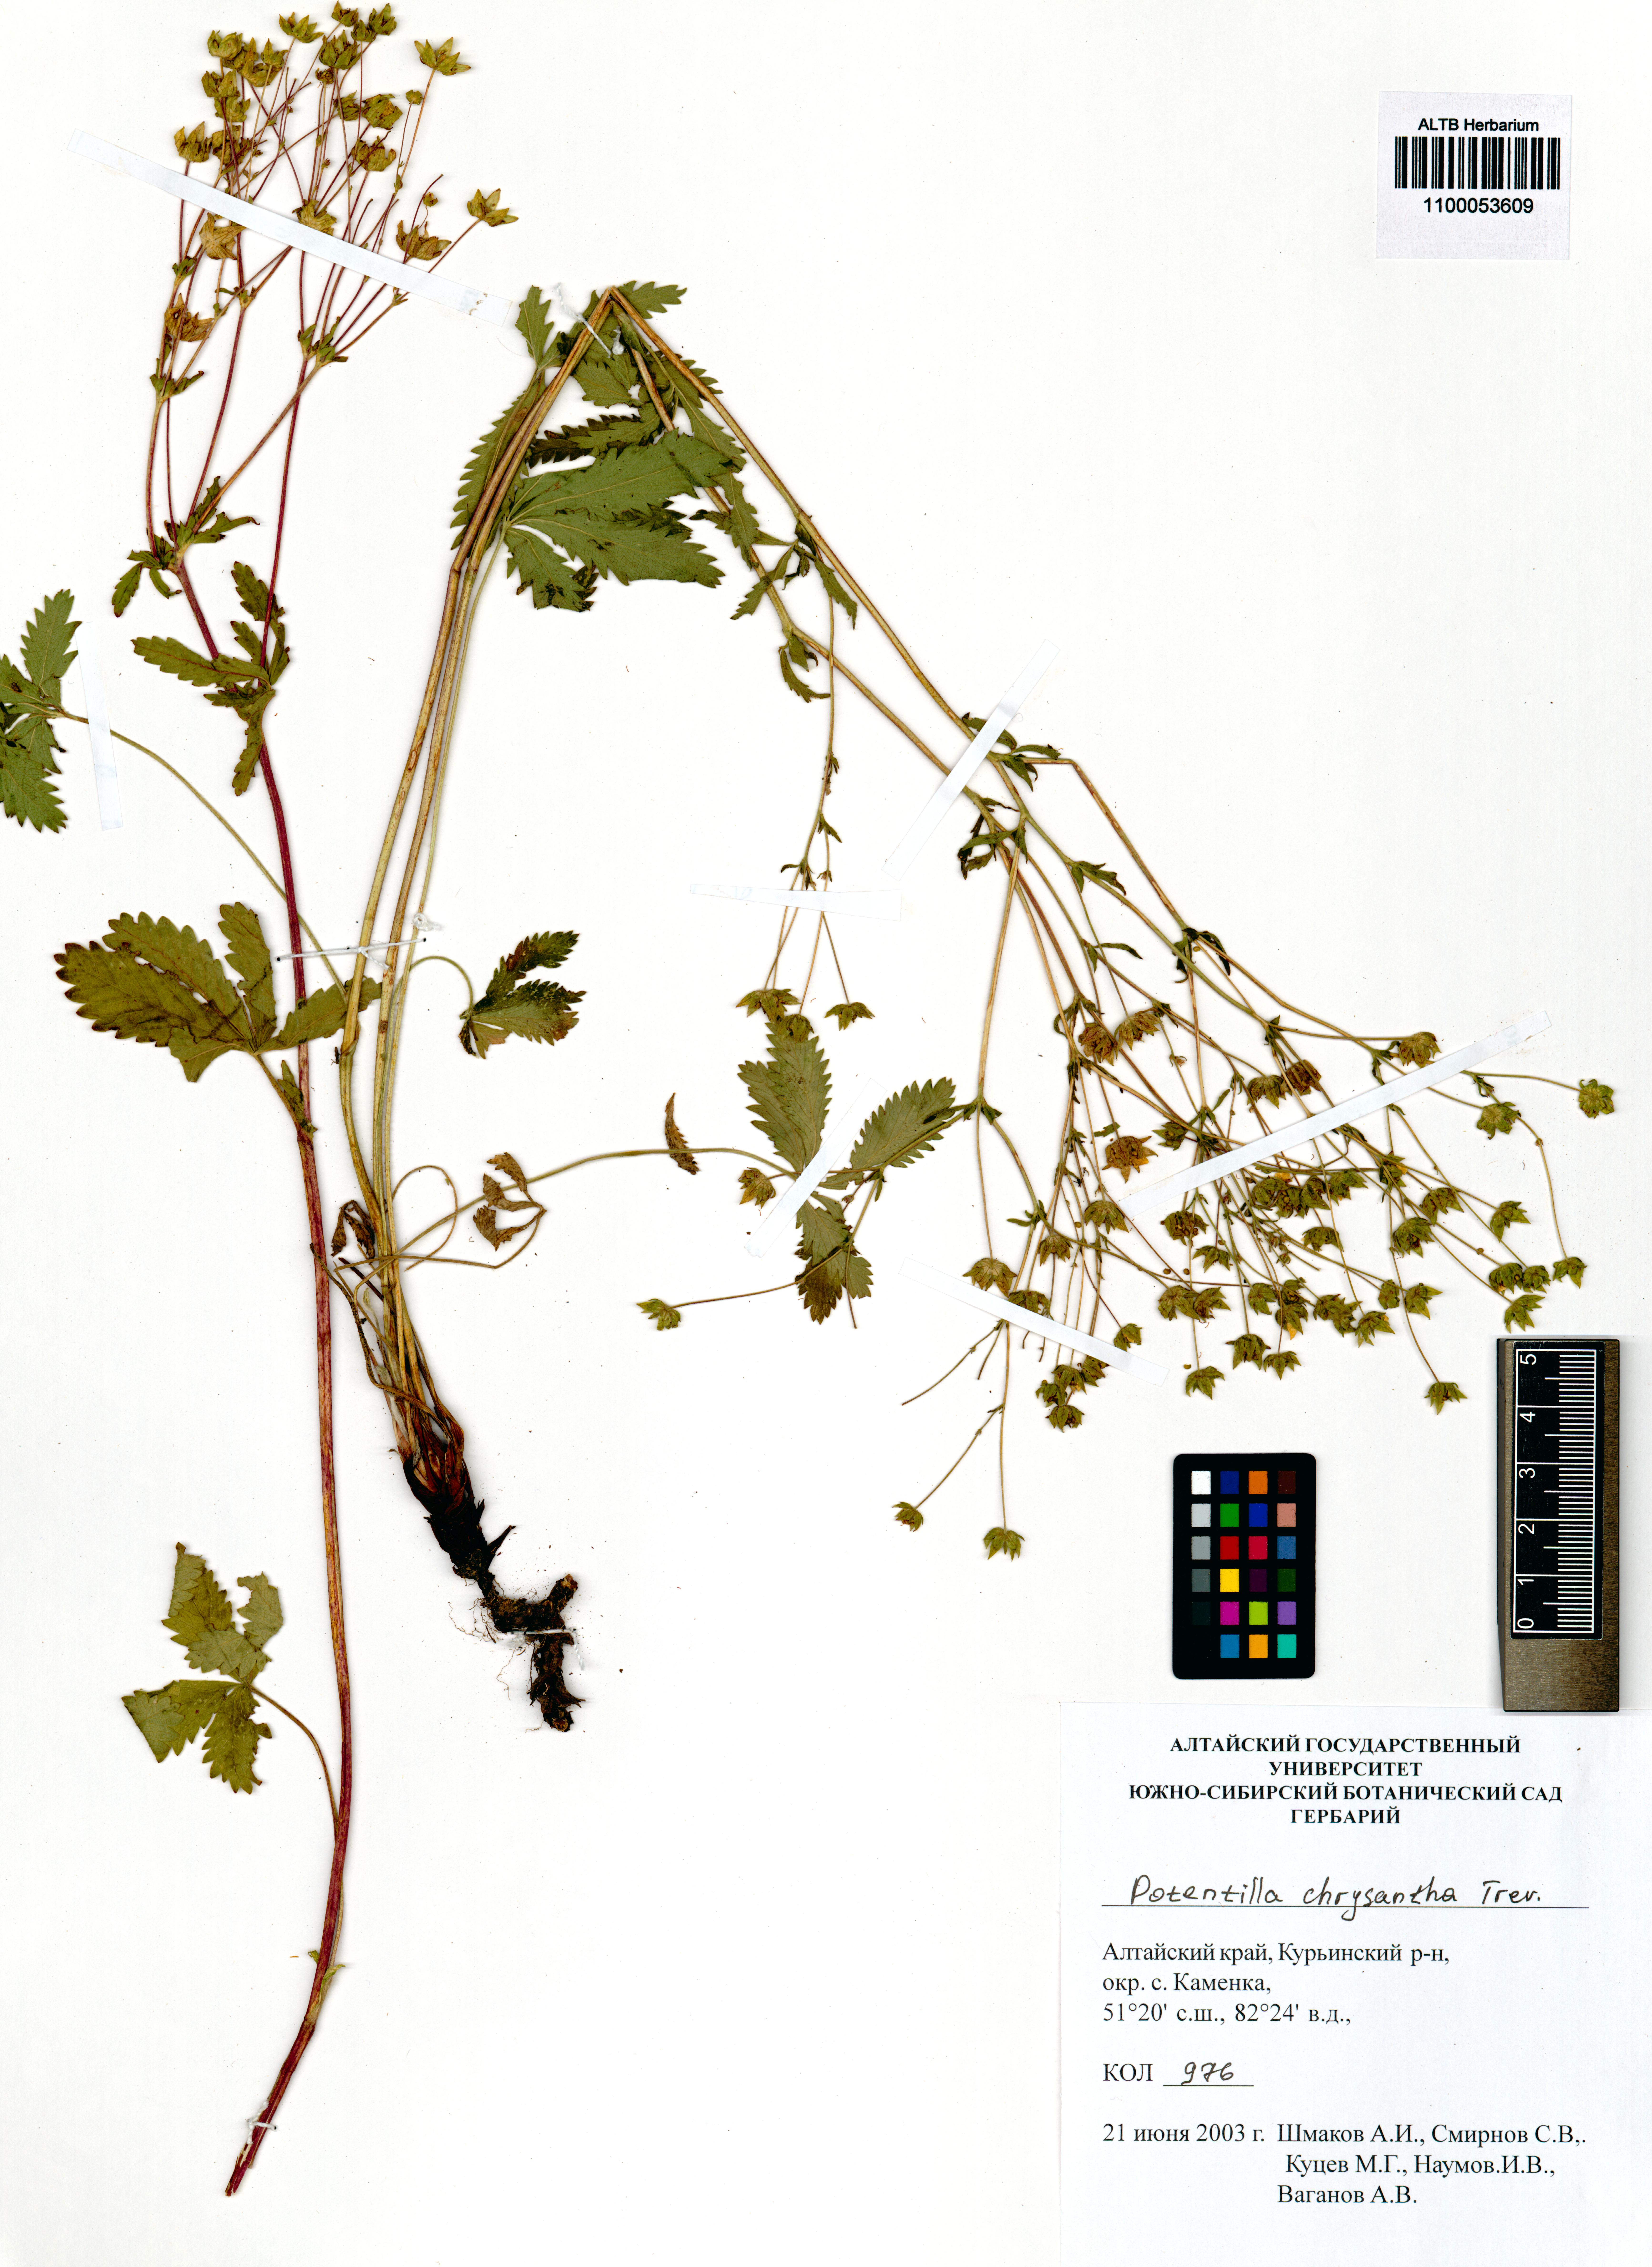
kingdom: Plantae
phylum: Tracheophyta
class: Magnoliopsida
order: Rosales
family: Rosaceae
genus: Potentilla
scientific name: Potentilla chrysantha
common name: Thuringian cinquefoil
